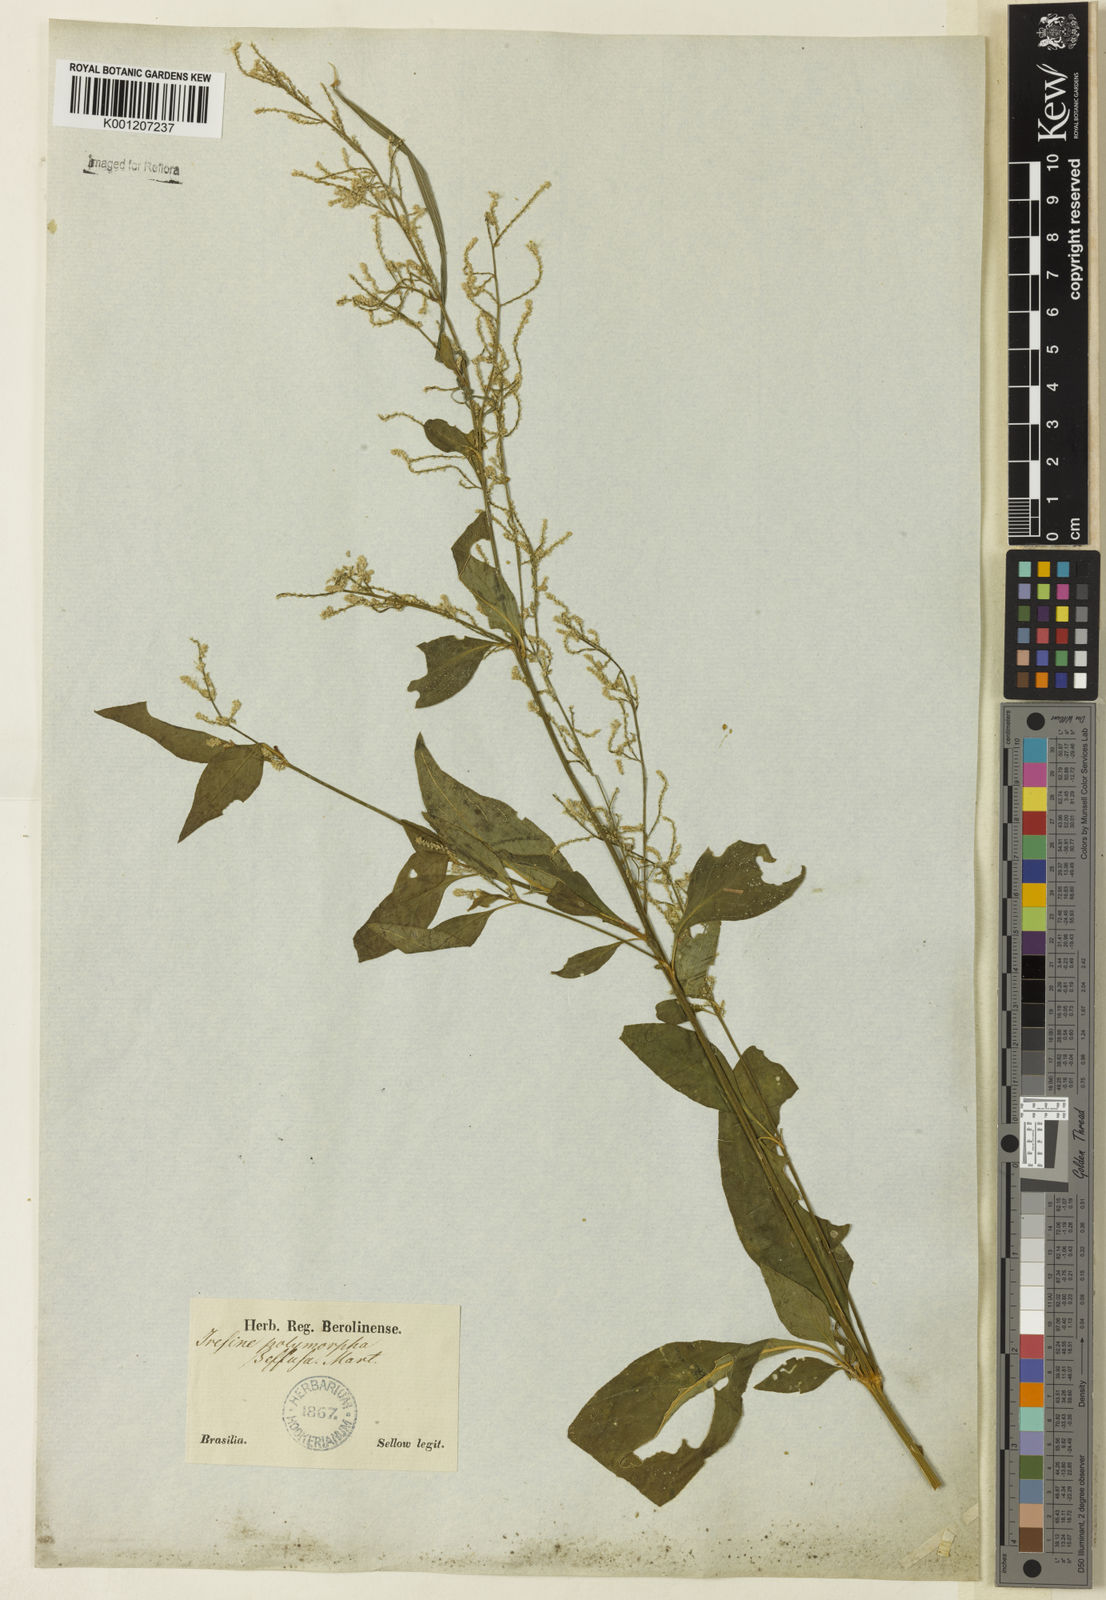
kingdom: Plantae
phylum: Tracheophyta
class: Magnoliopsida
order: Caryophyllales
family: Amaranthaceae
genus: Iresine
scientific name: Iresine rhizomatosa
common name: Juda's-bush
